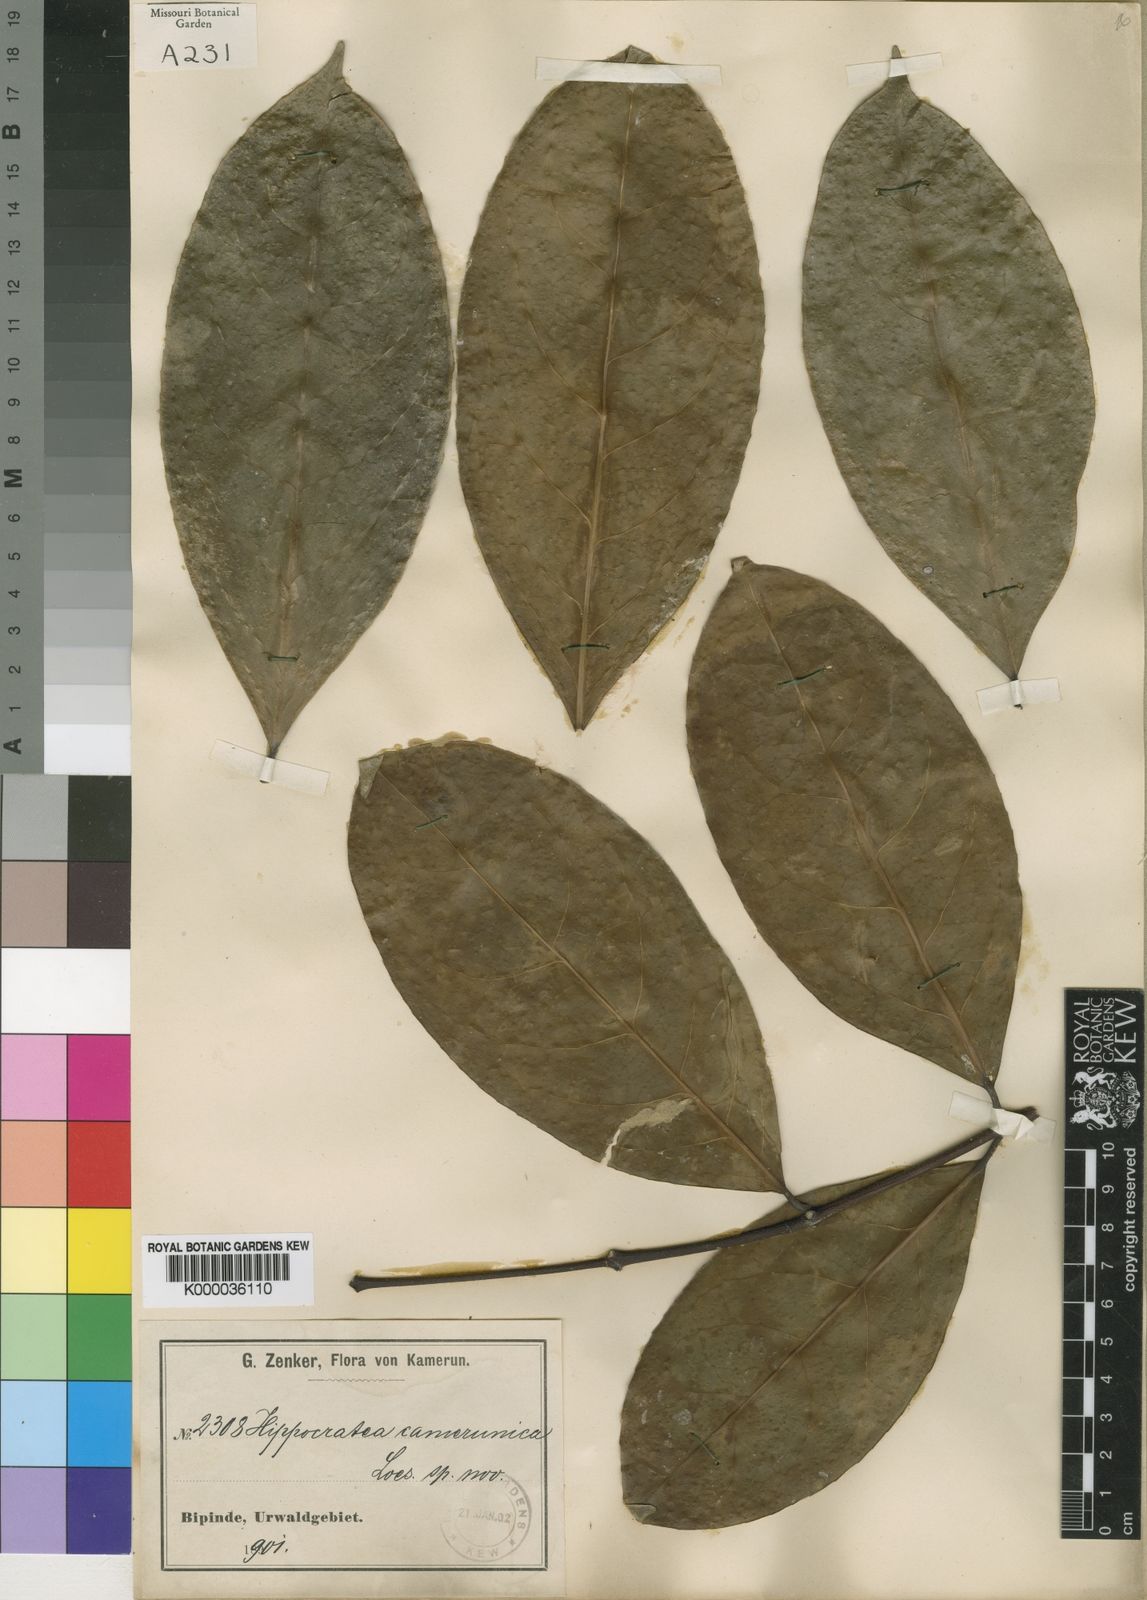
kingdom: Plantae
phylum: Tracheophyta
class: Magnoliopsida
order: Celastrales
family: Celastraceae
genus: Loeseneriella
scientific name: Loeseneriella
